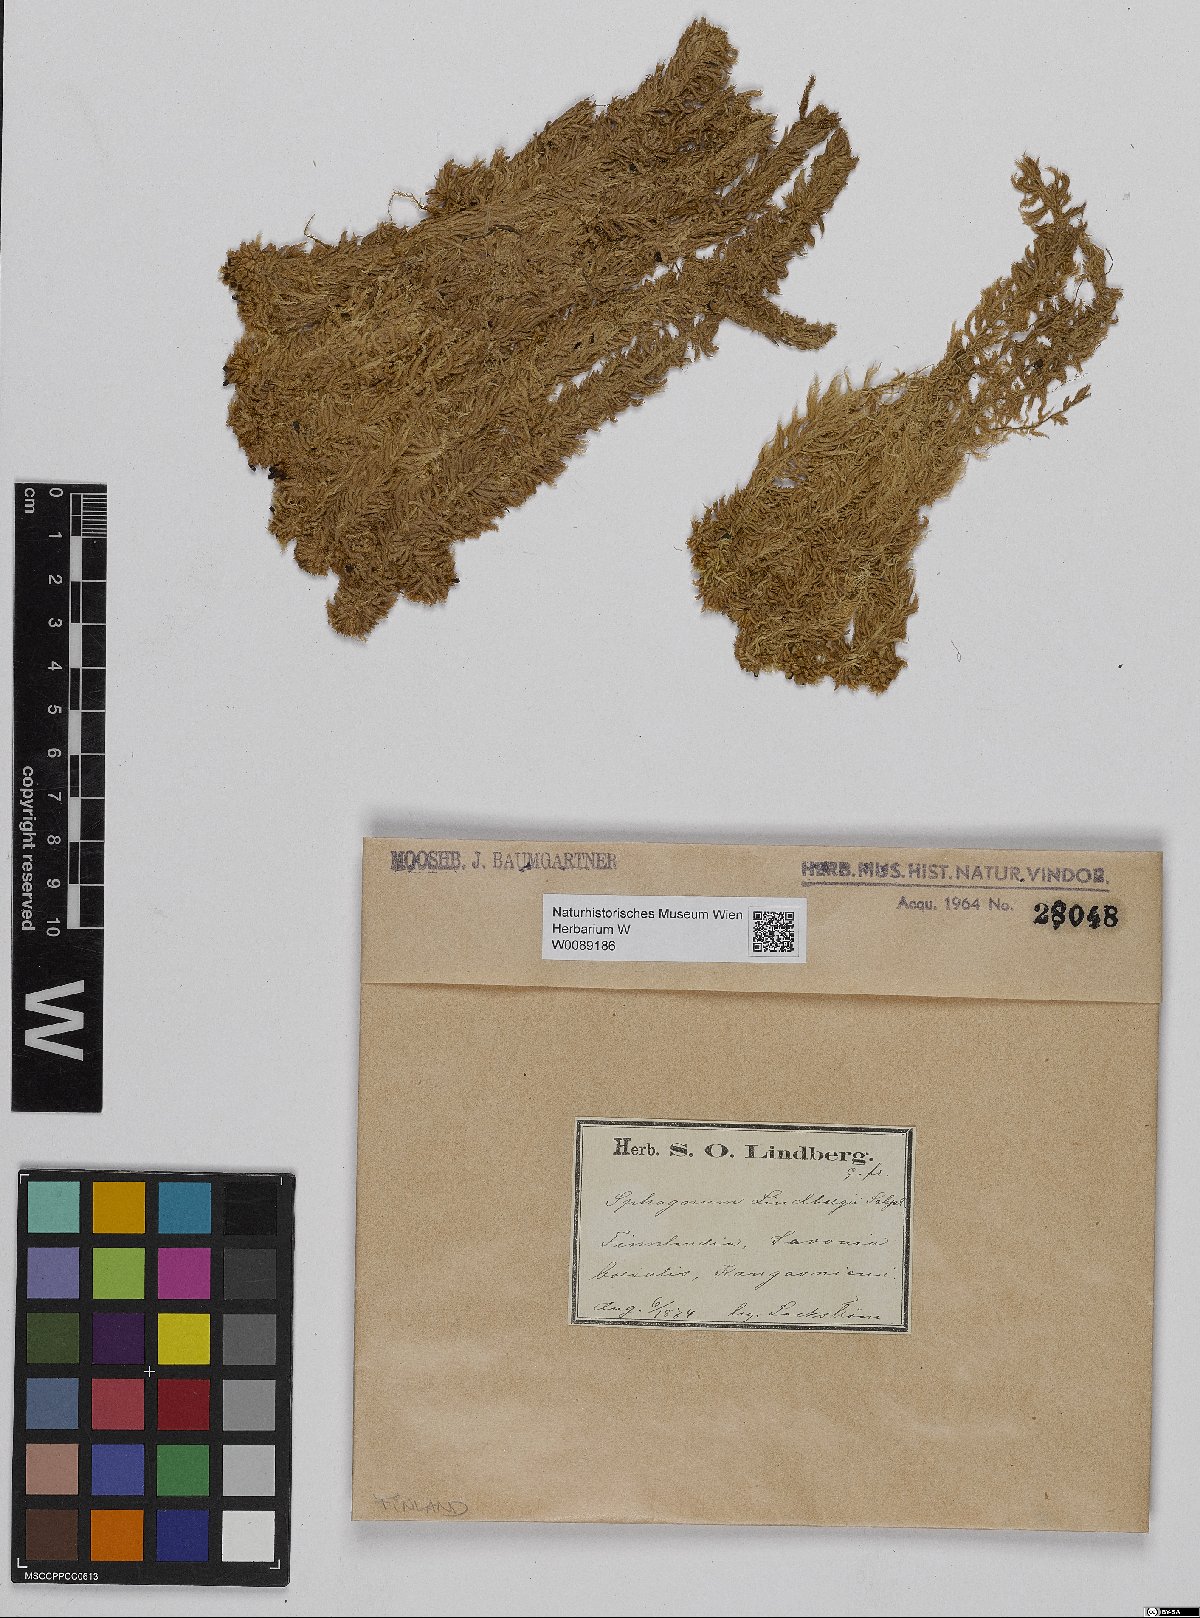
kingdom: Plantae
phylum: Bryophyta
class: Sphagnopsida
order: Sphagnales
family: Sphagnaceae
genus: Sphagnum
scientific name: Sphagnum lindbergii
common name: Lindberg's peat moss
